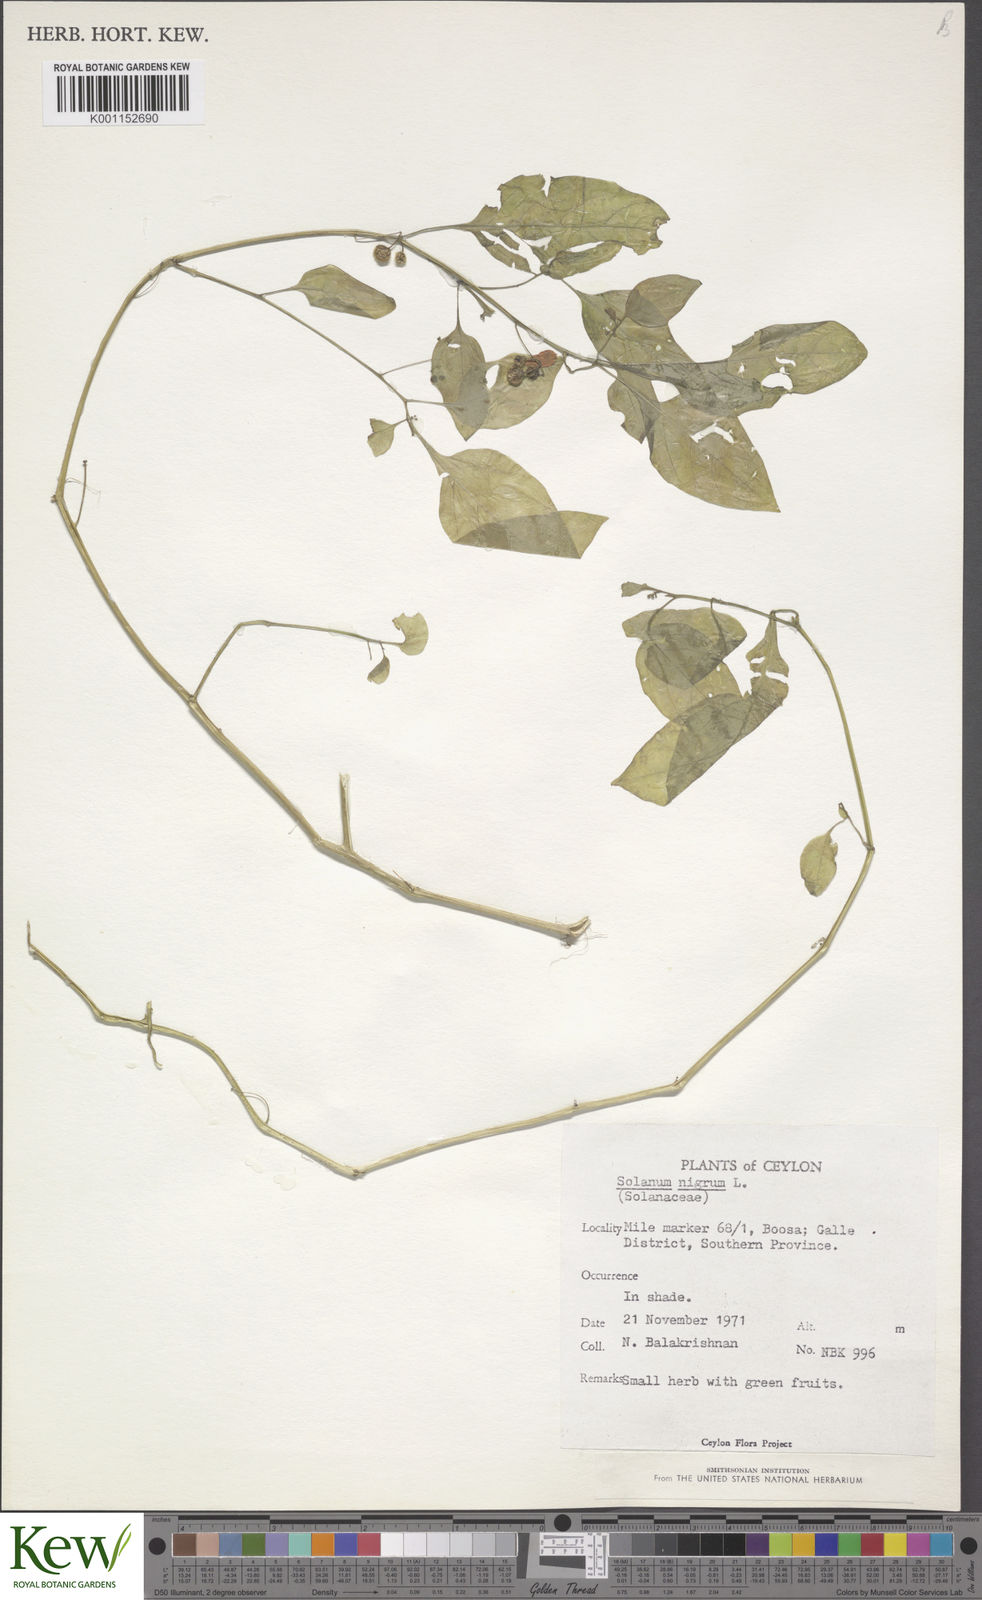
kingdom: Plantae
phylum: Tracheophyta
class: Magnoliopsida
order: Solanales
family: Solanaceae
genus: Solanum
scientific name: Solanum nigrum
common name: Black nightshade
